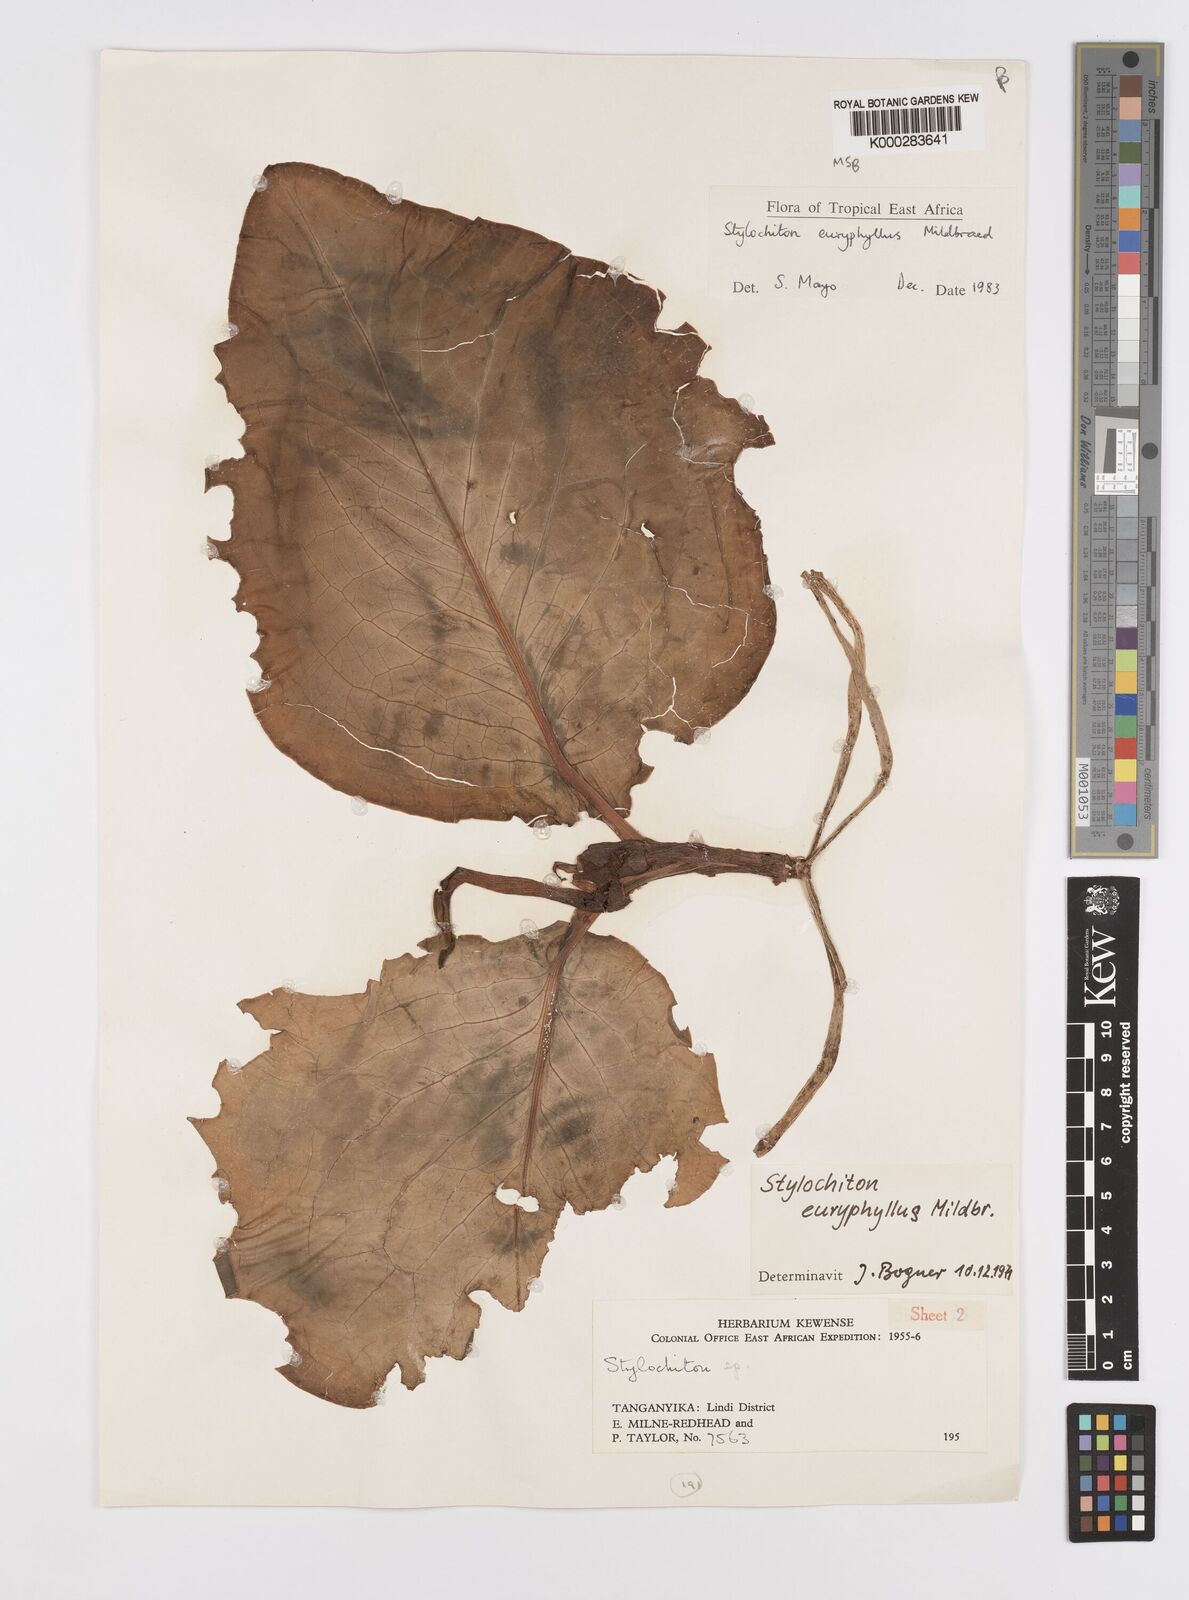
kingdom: Plantae
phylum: Tracheophyta
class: Liliopsida
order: Alismatales
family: Araceae
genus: Stylochaeton
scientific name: Stylochaeton euryphyllum
